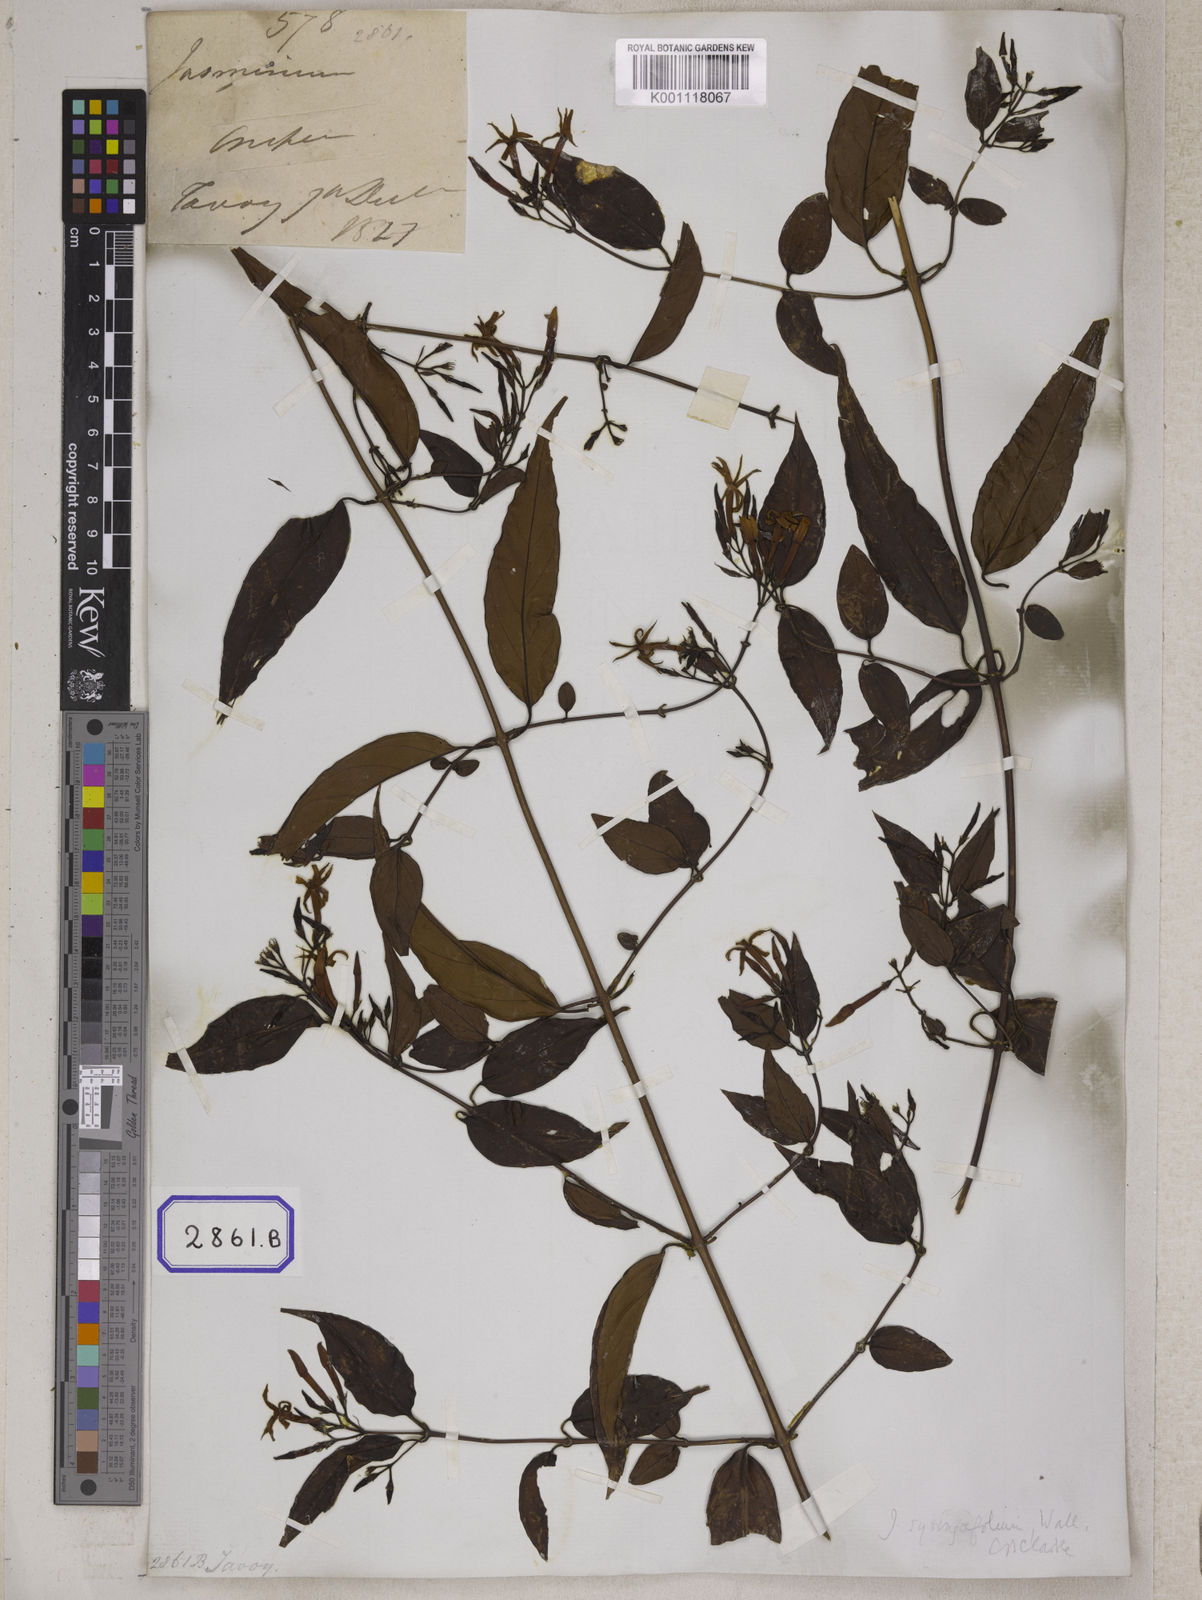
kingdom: Plantae
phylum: Tracheophyta
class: Magnoliopsida
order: Lamiales
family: Oleaceae
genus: Jasminum
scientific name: Jasminum
